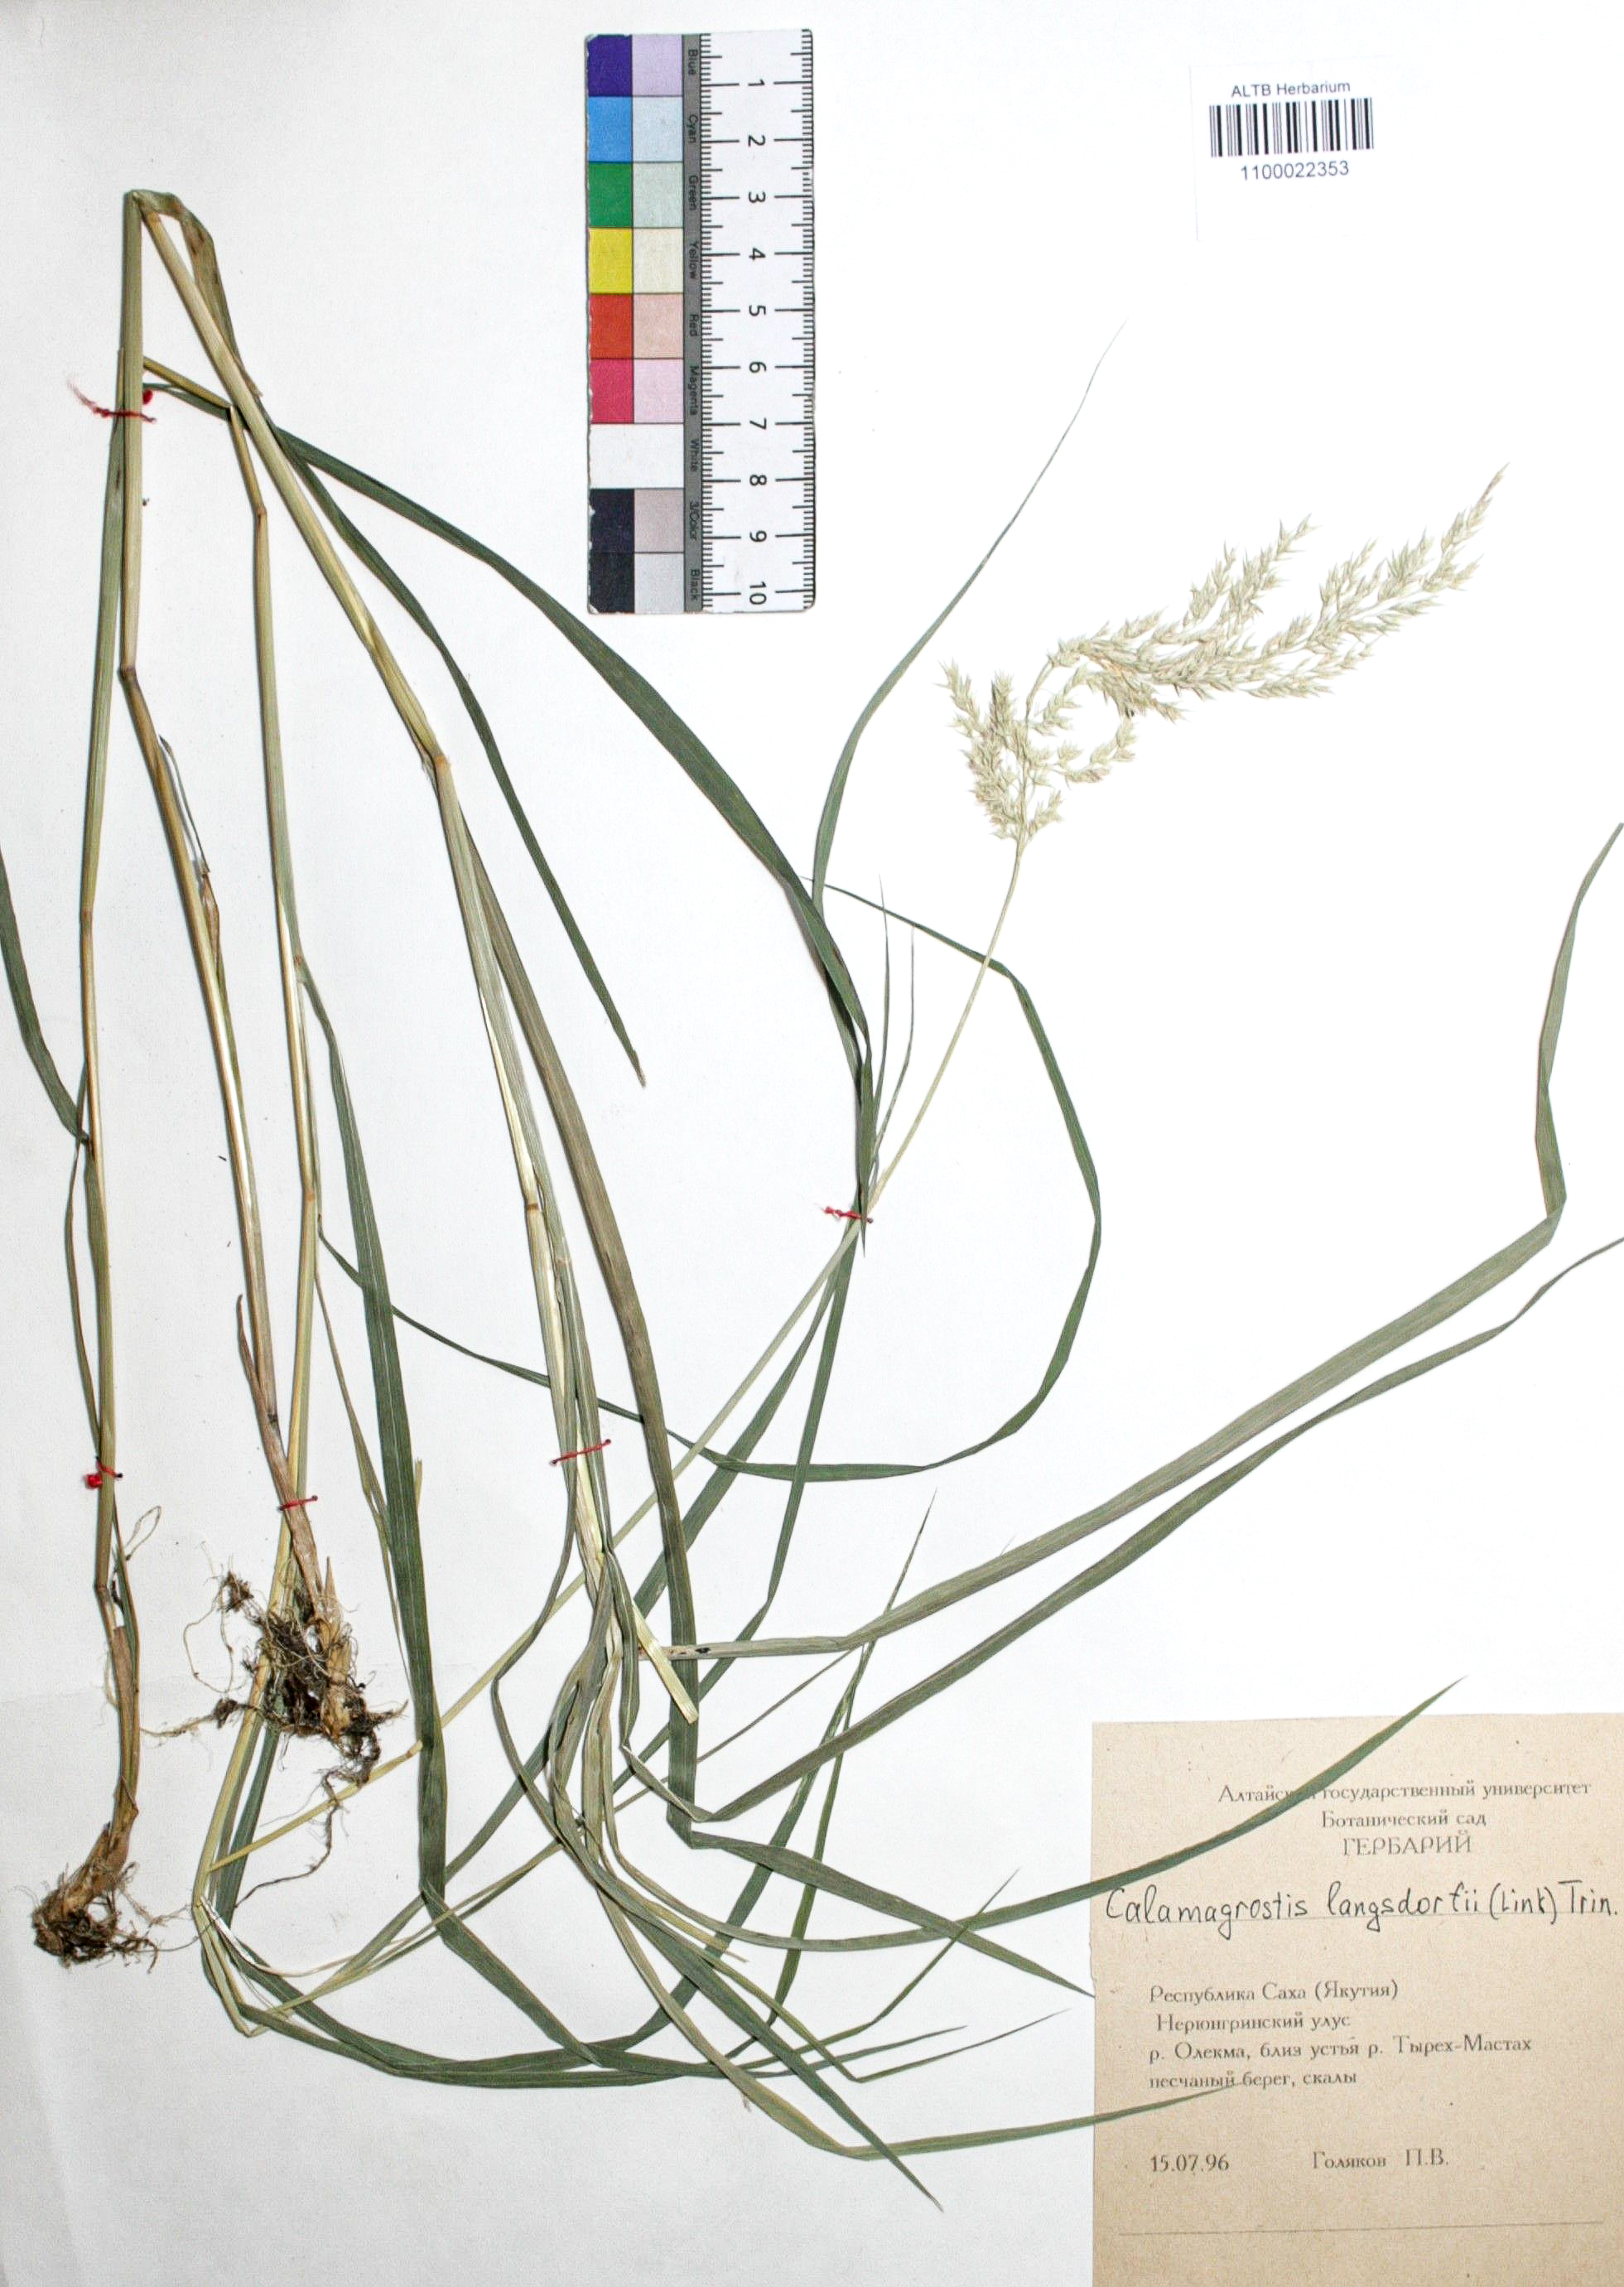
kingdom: Plantae
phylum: Tracheophyta
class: Liliopsida
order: Poales
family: Poaceae
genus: Calamagrostis
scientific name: Calamagrostis purpurea
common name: Scandinavian small-reed
